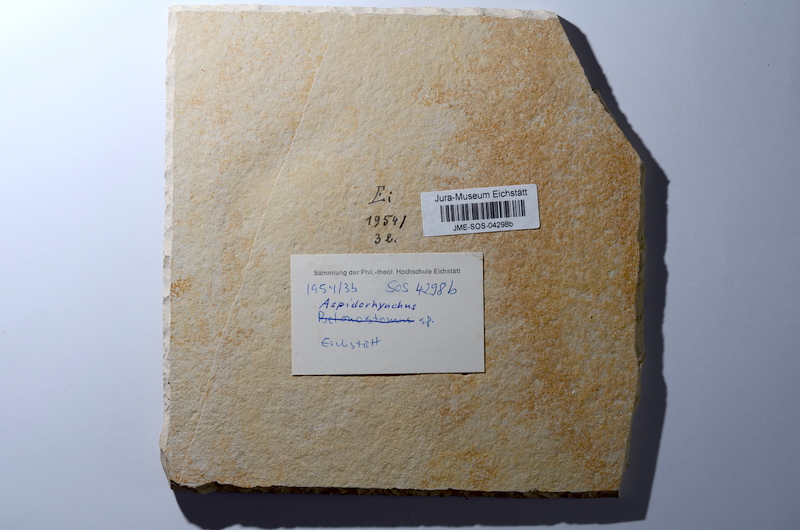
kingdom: Animalia
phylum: Chordata
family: Aspidorhynchidae
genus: Aspidorhynchus
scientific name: Aspidorhynchus acutirostris
